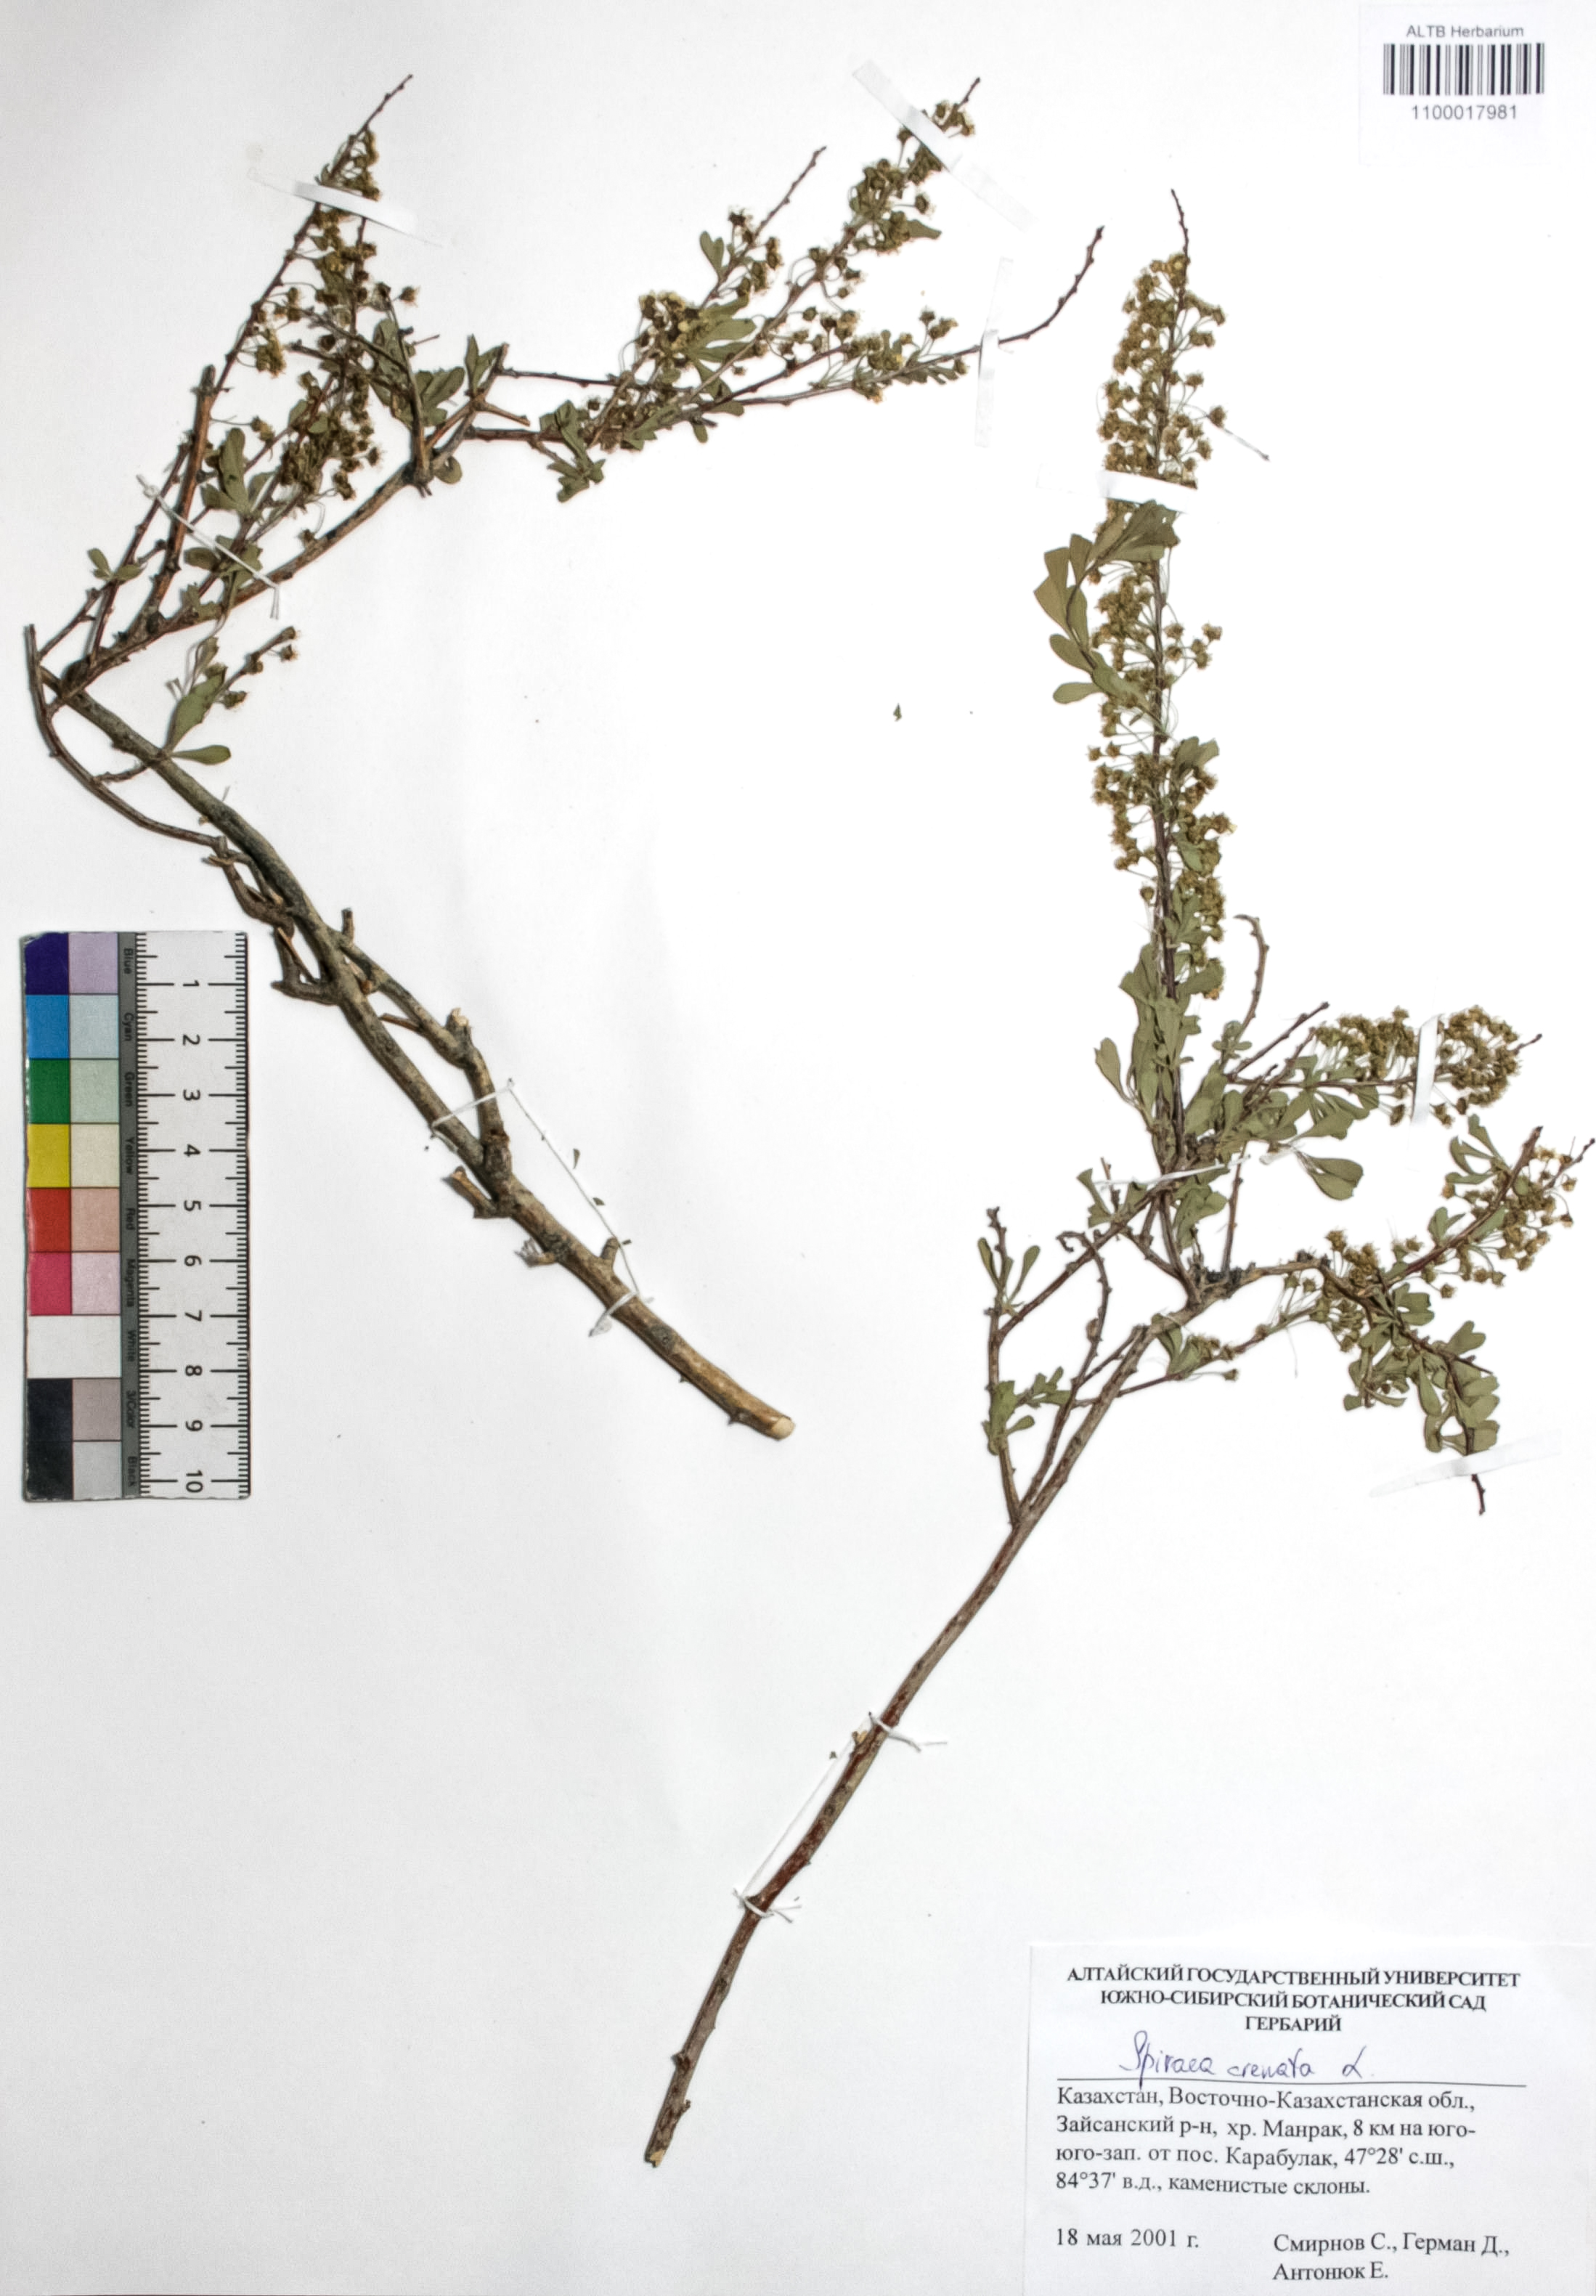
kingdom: Plantae
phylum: Tracheophyta
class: Magnoliopsida
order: Rosales
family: Rosaceae
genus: Spiraea
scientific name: Spiraea crenata
